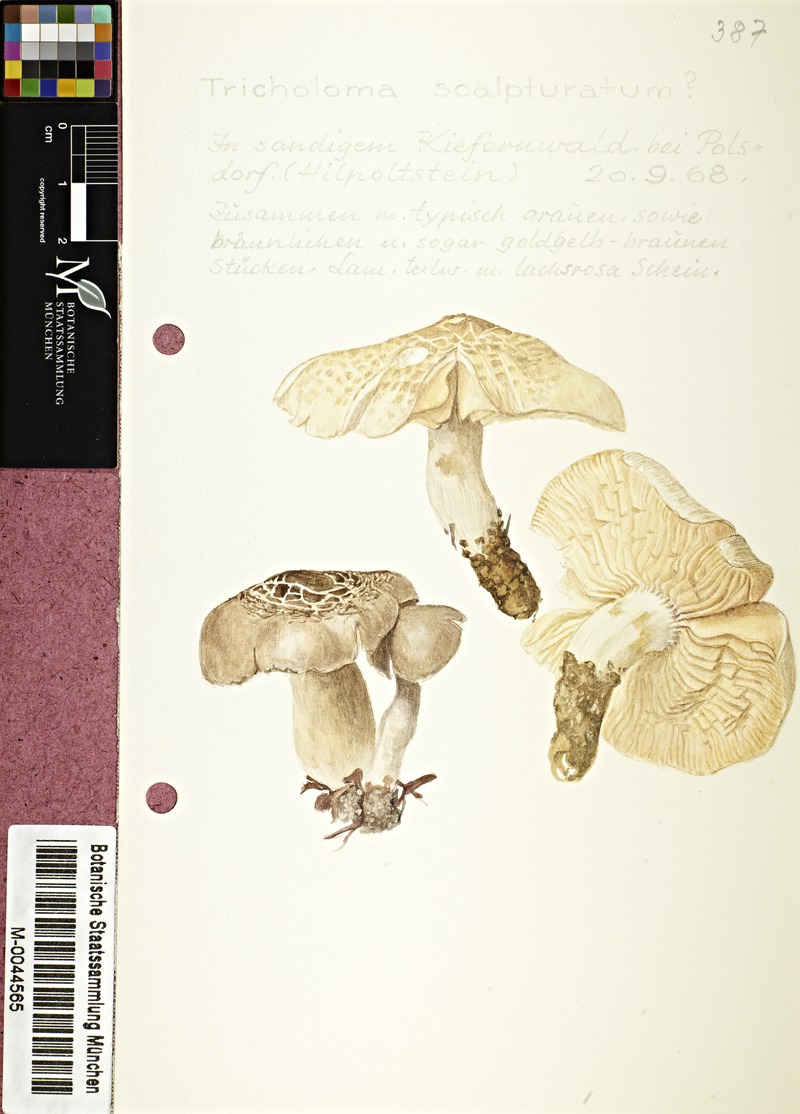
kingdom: Fungi
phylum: Basidiomycota
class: Agaricomycetes
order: Agaricales
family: Tricholomataceae
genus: Tricholoma
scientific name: Tricholoma scalpturatum
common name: Yellowing knight
